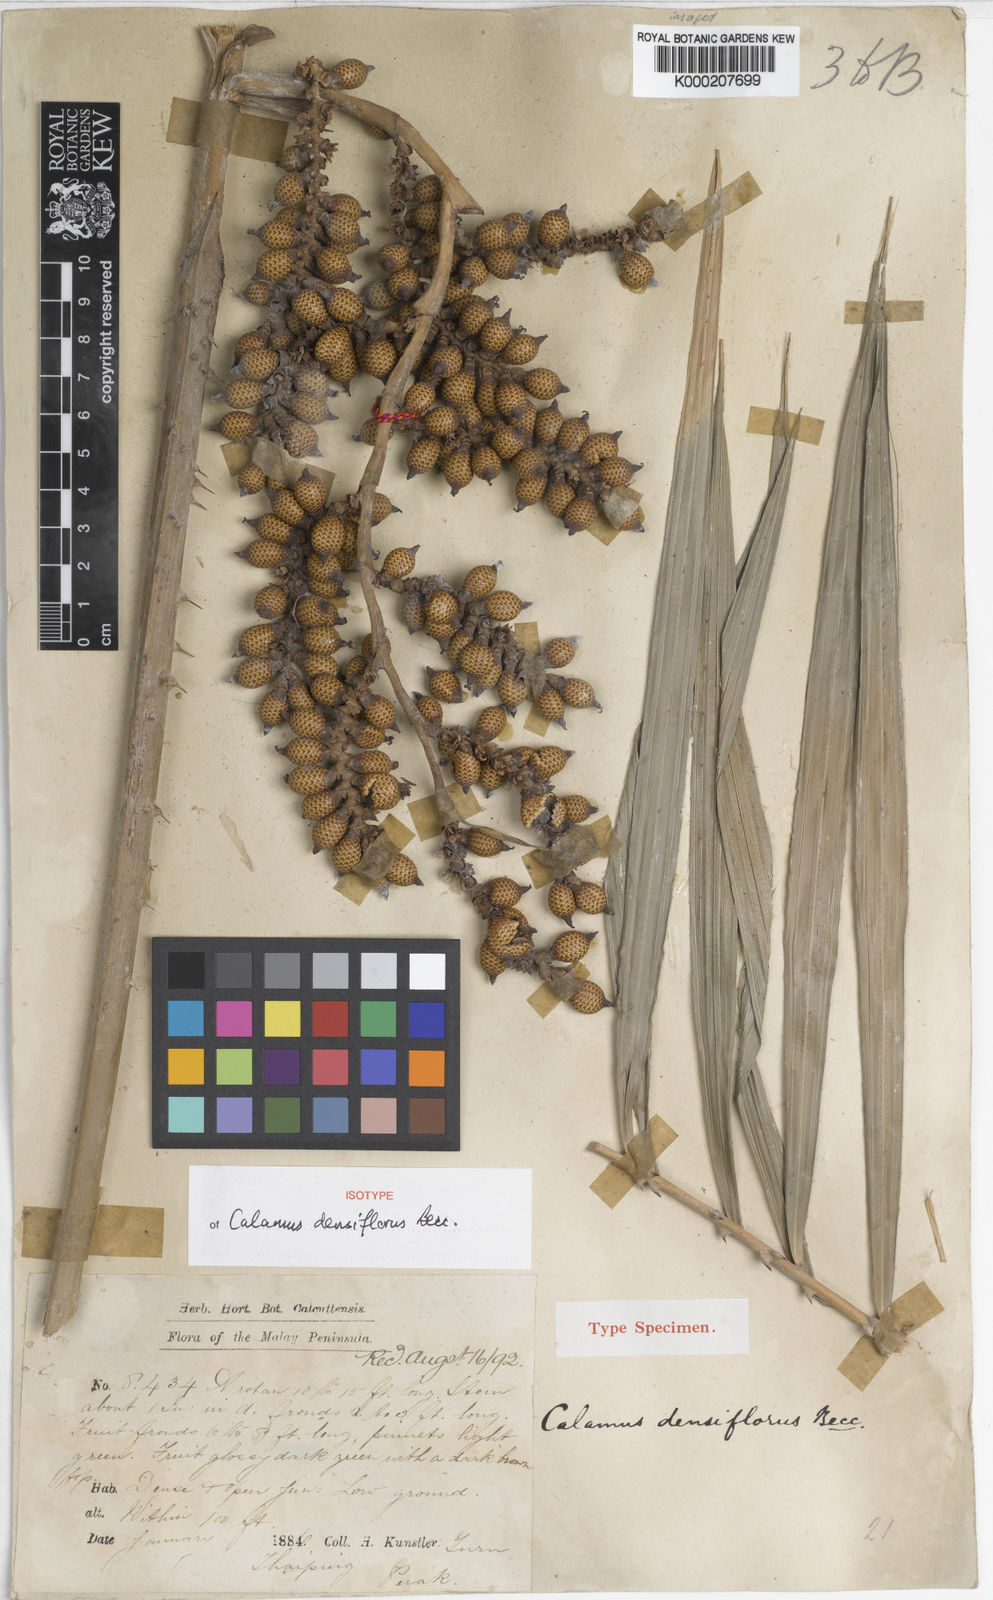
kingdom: Plantae
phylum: Tracheophyta
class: Liliopsida
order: Arecales
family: Arecaceae
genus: Calamus
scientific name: Calamus densiflorus
